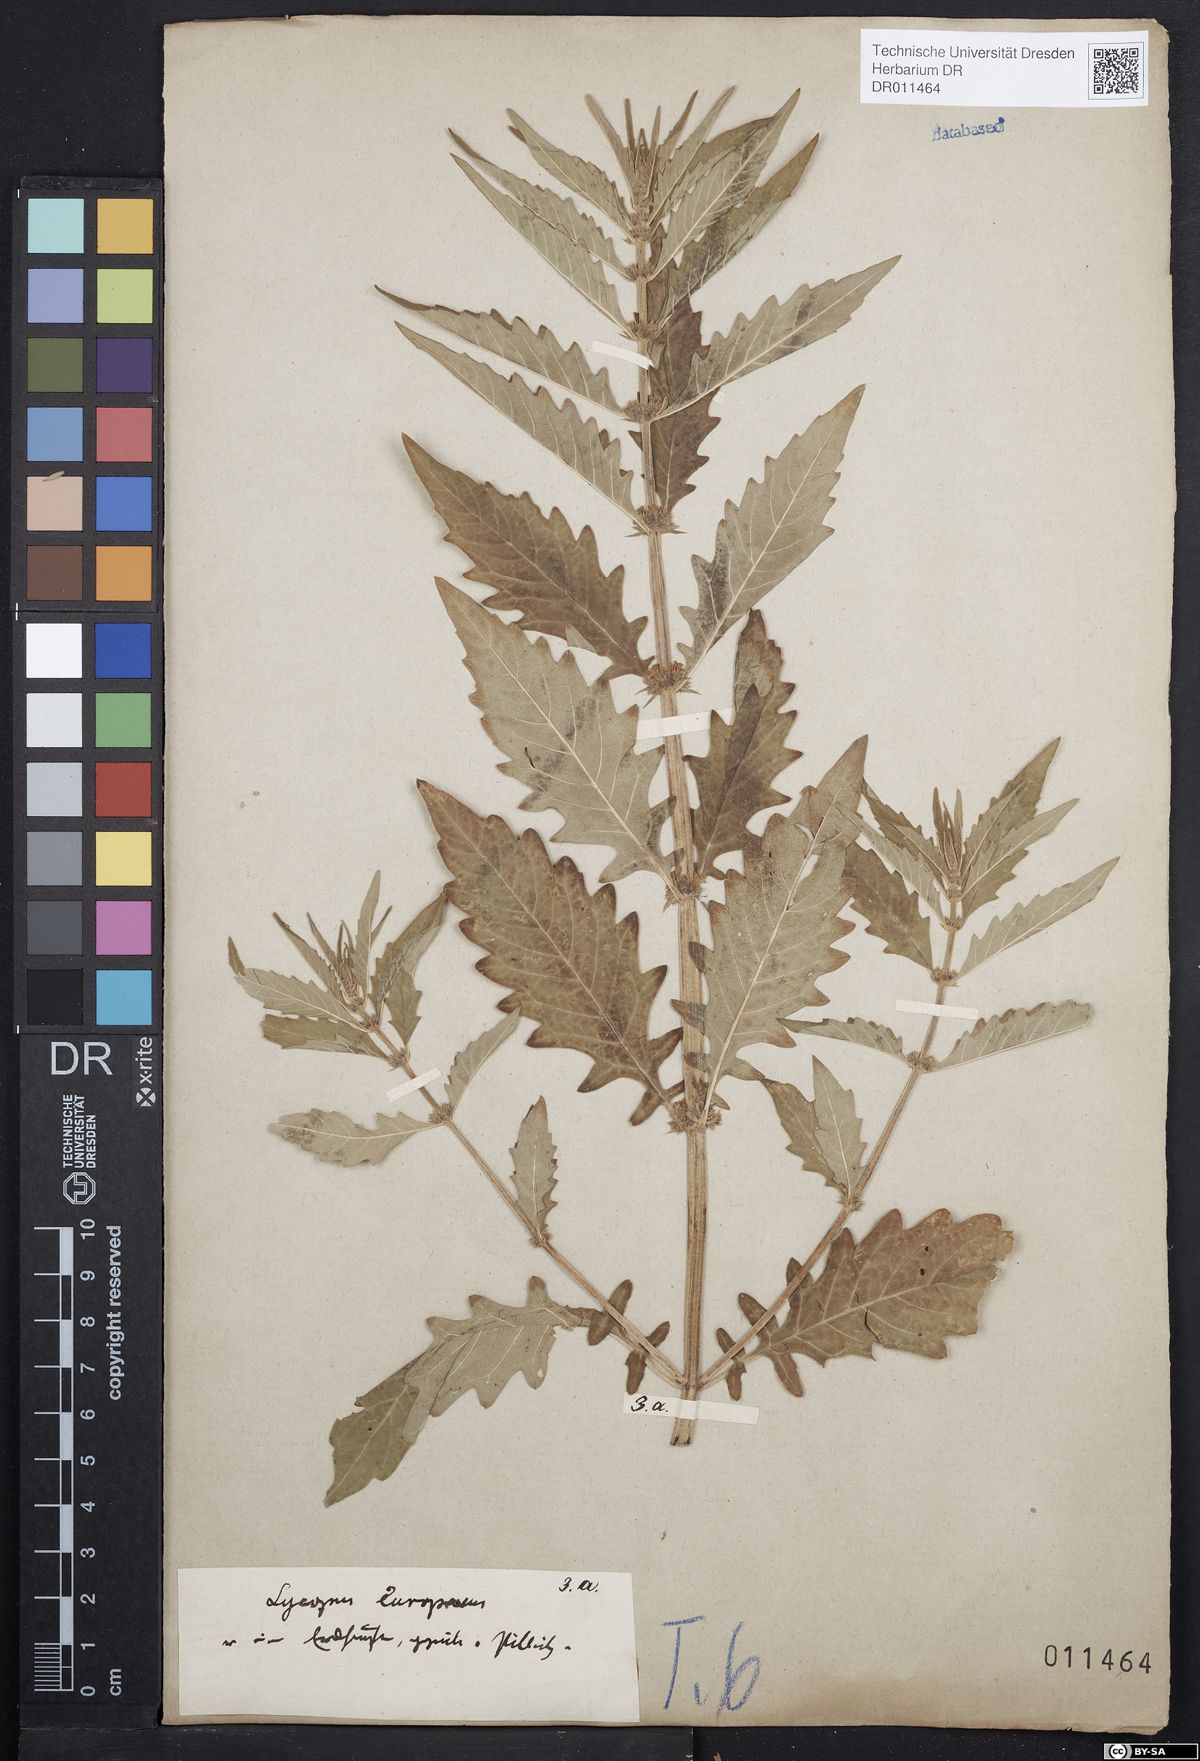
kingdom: Plantae
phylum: Tracheophyta
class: Magnoliopsida
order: Lamiales
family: Lamiaceae
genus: Lycopus
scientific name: Lycopus europaeus
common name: European bugleweed
